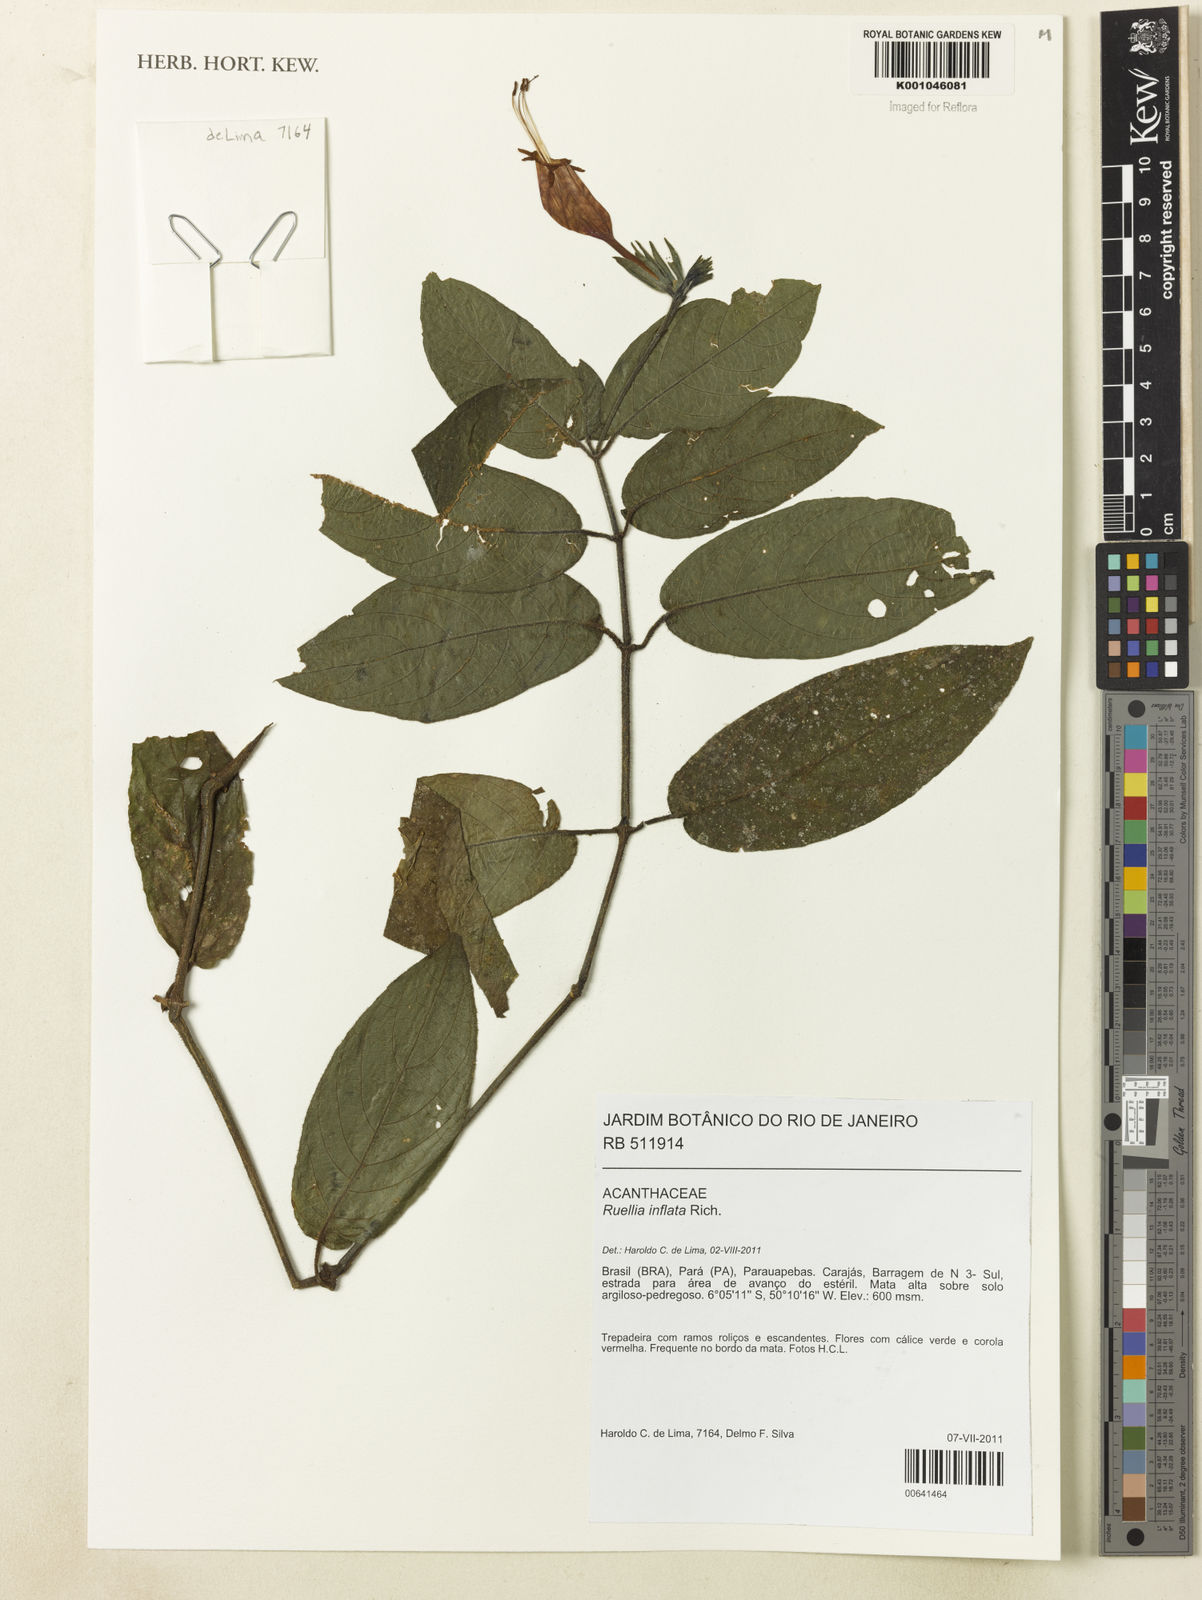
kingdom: Plantae
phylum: Tracheophyta
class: Magnoliopsida
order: Lamiales
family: Acanthaceae
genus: Ruellia
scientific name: Ruellia inflata
